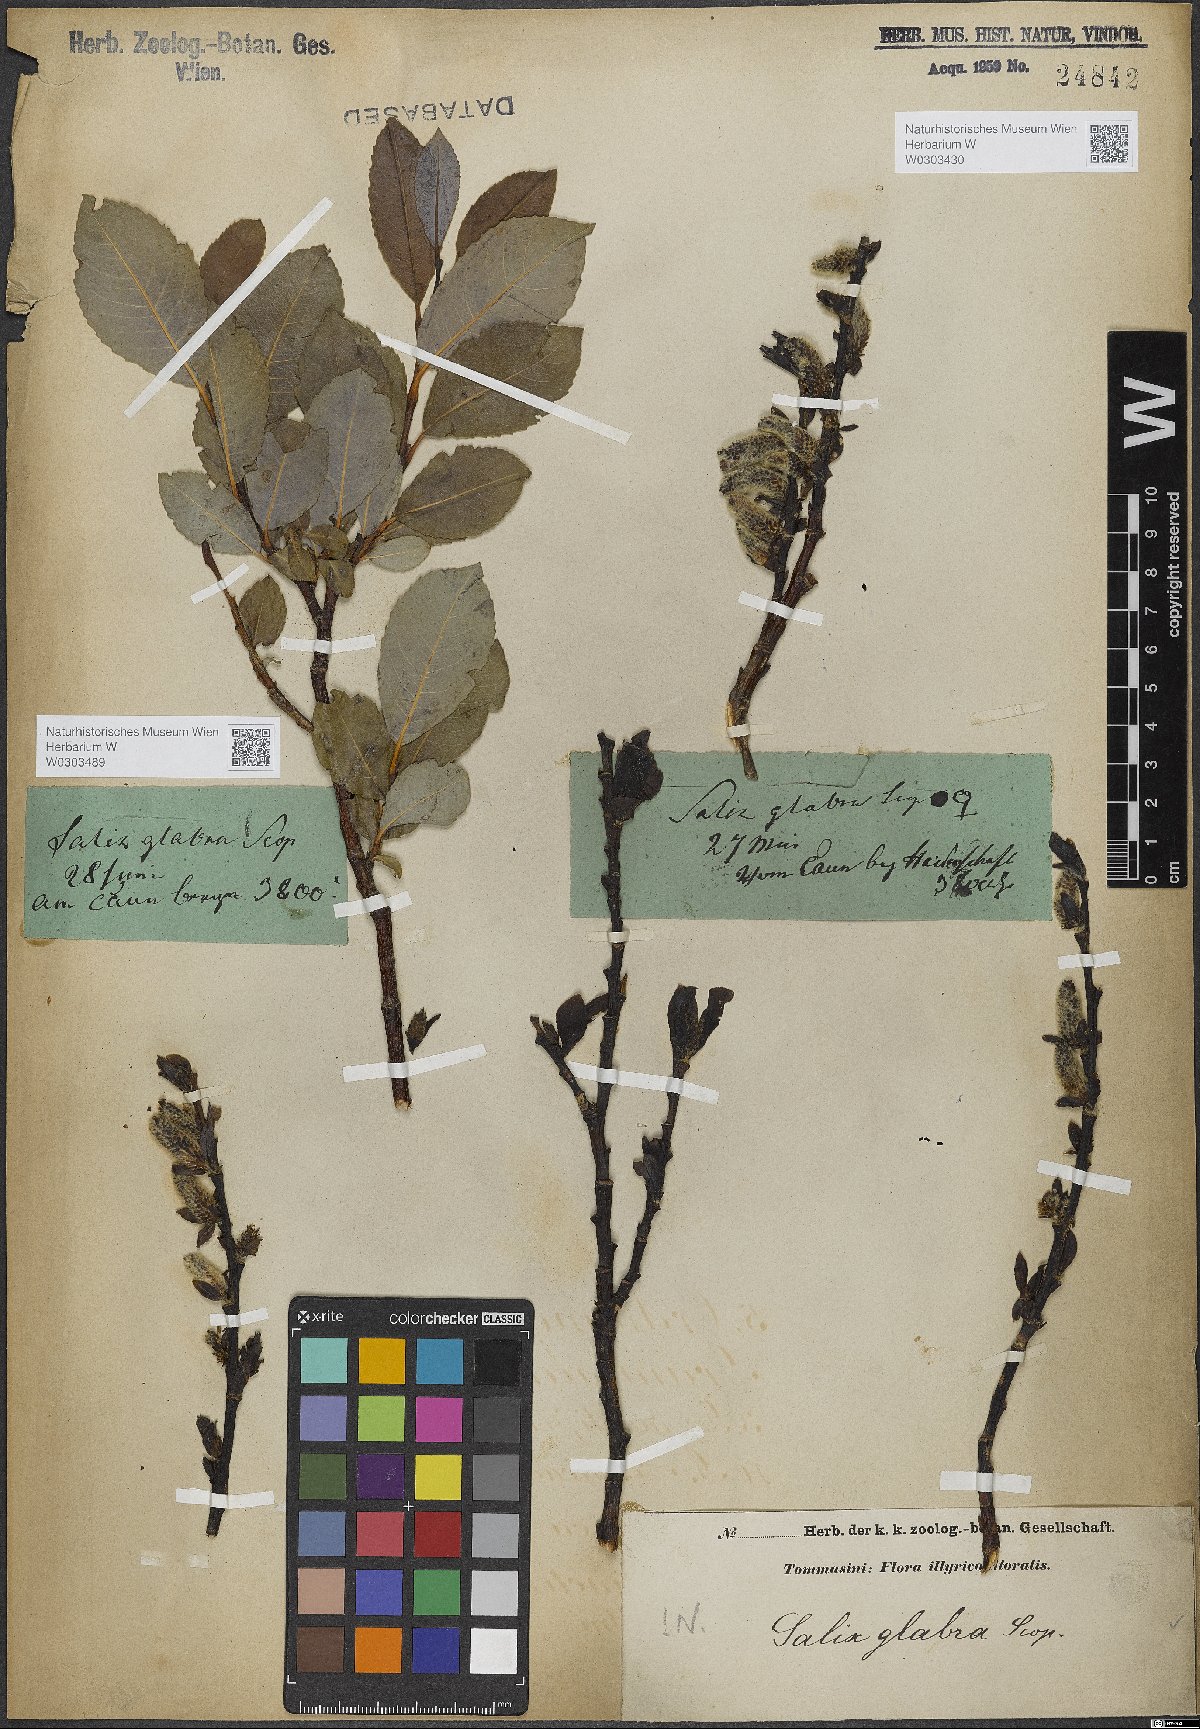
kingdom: Plantae
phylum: Tracheophyta
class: Magnoliopsida
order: Malpighiales
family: Salicaceae
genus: Salix
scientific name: Salix glabra
